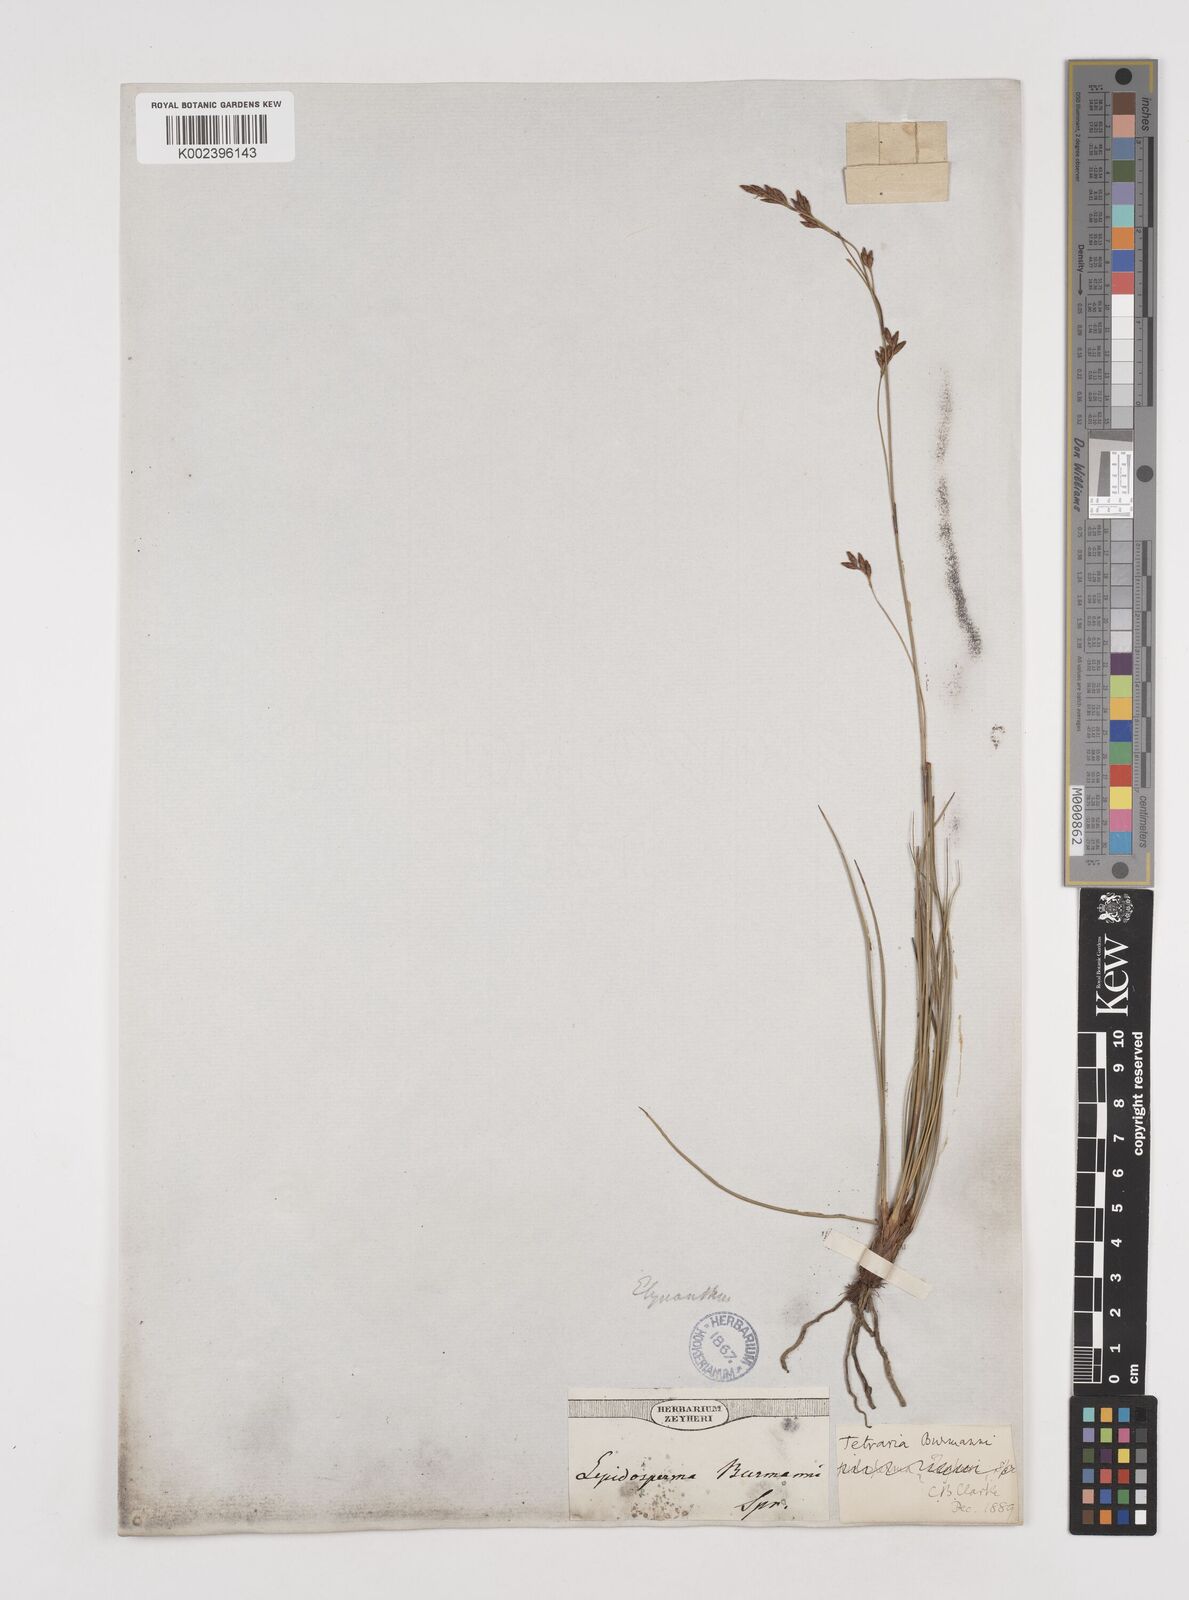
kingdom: Plantae
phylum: Tracheophyta
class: Liliopsida
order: Poales
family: Cyperaceae
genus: Tetraria
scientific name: Tetraria burmanni
